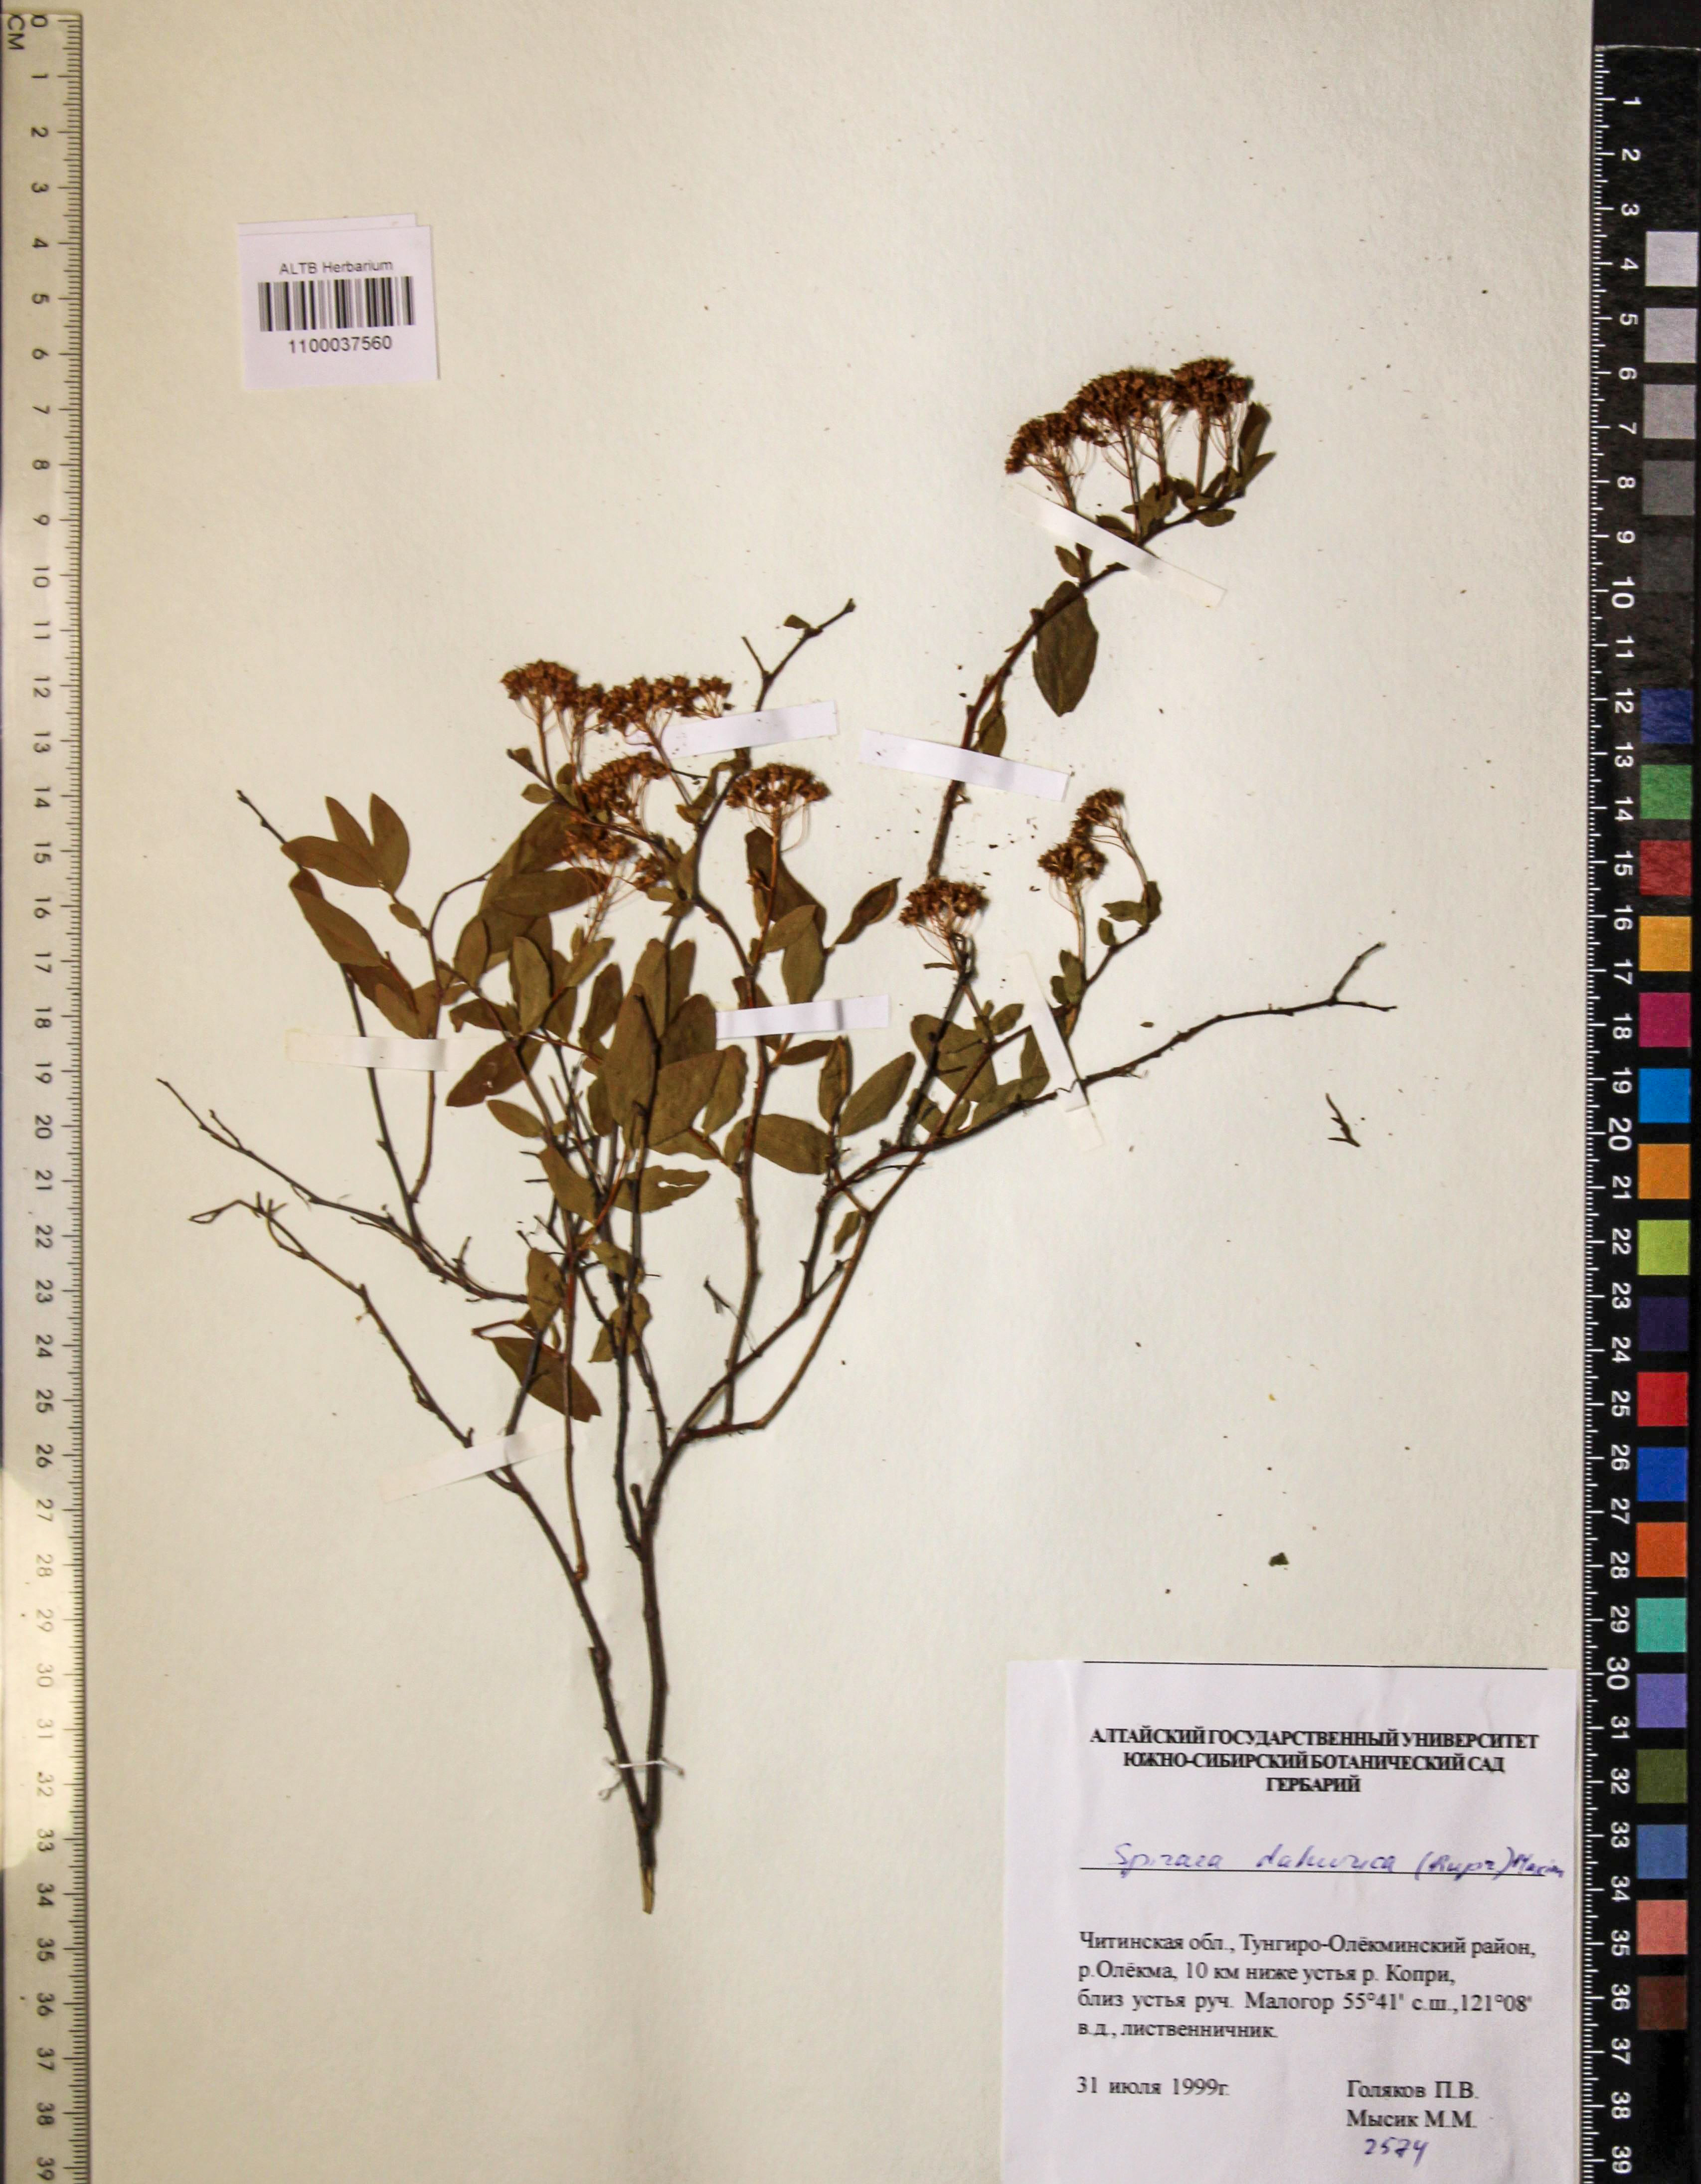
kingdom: Plantae
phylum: Tracheophyta
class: Magnoliopsida
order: Rosales
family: Rosaceae
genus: Spiraea
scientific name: Spiraea dahurica
